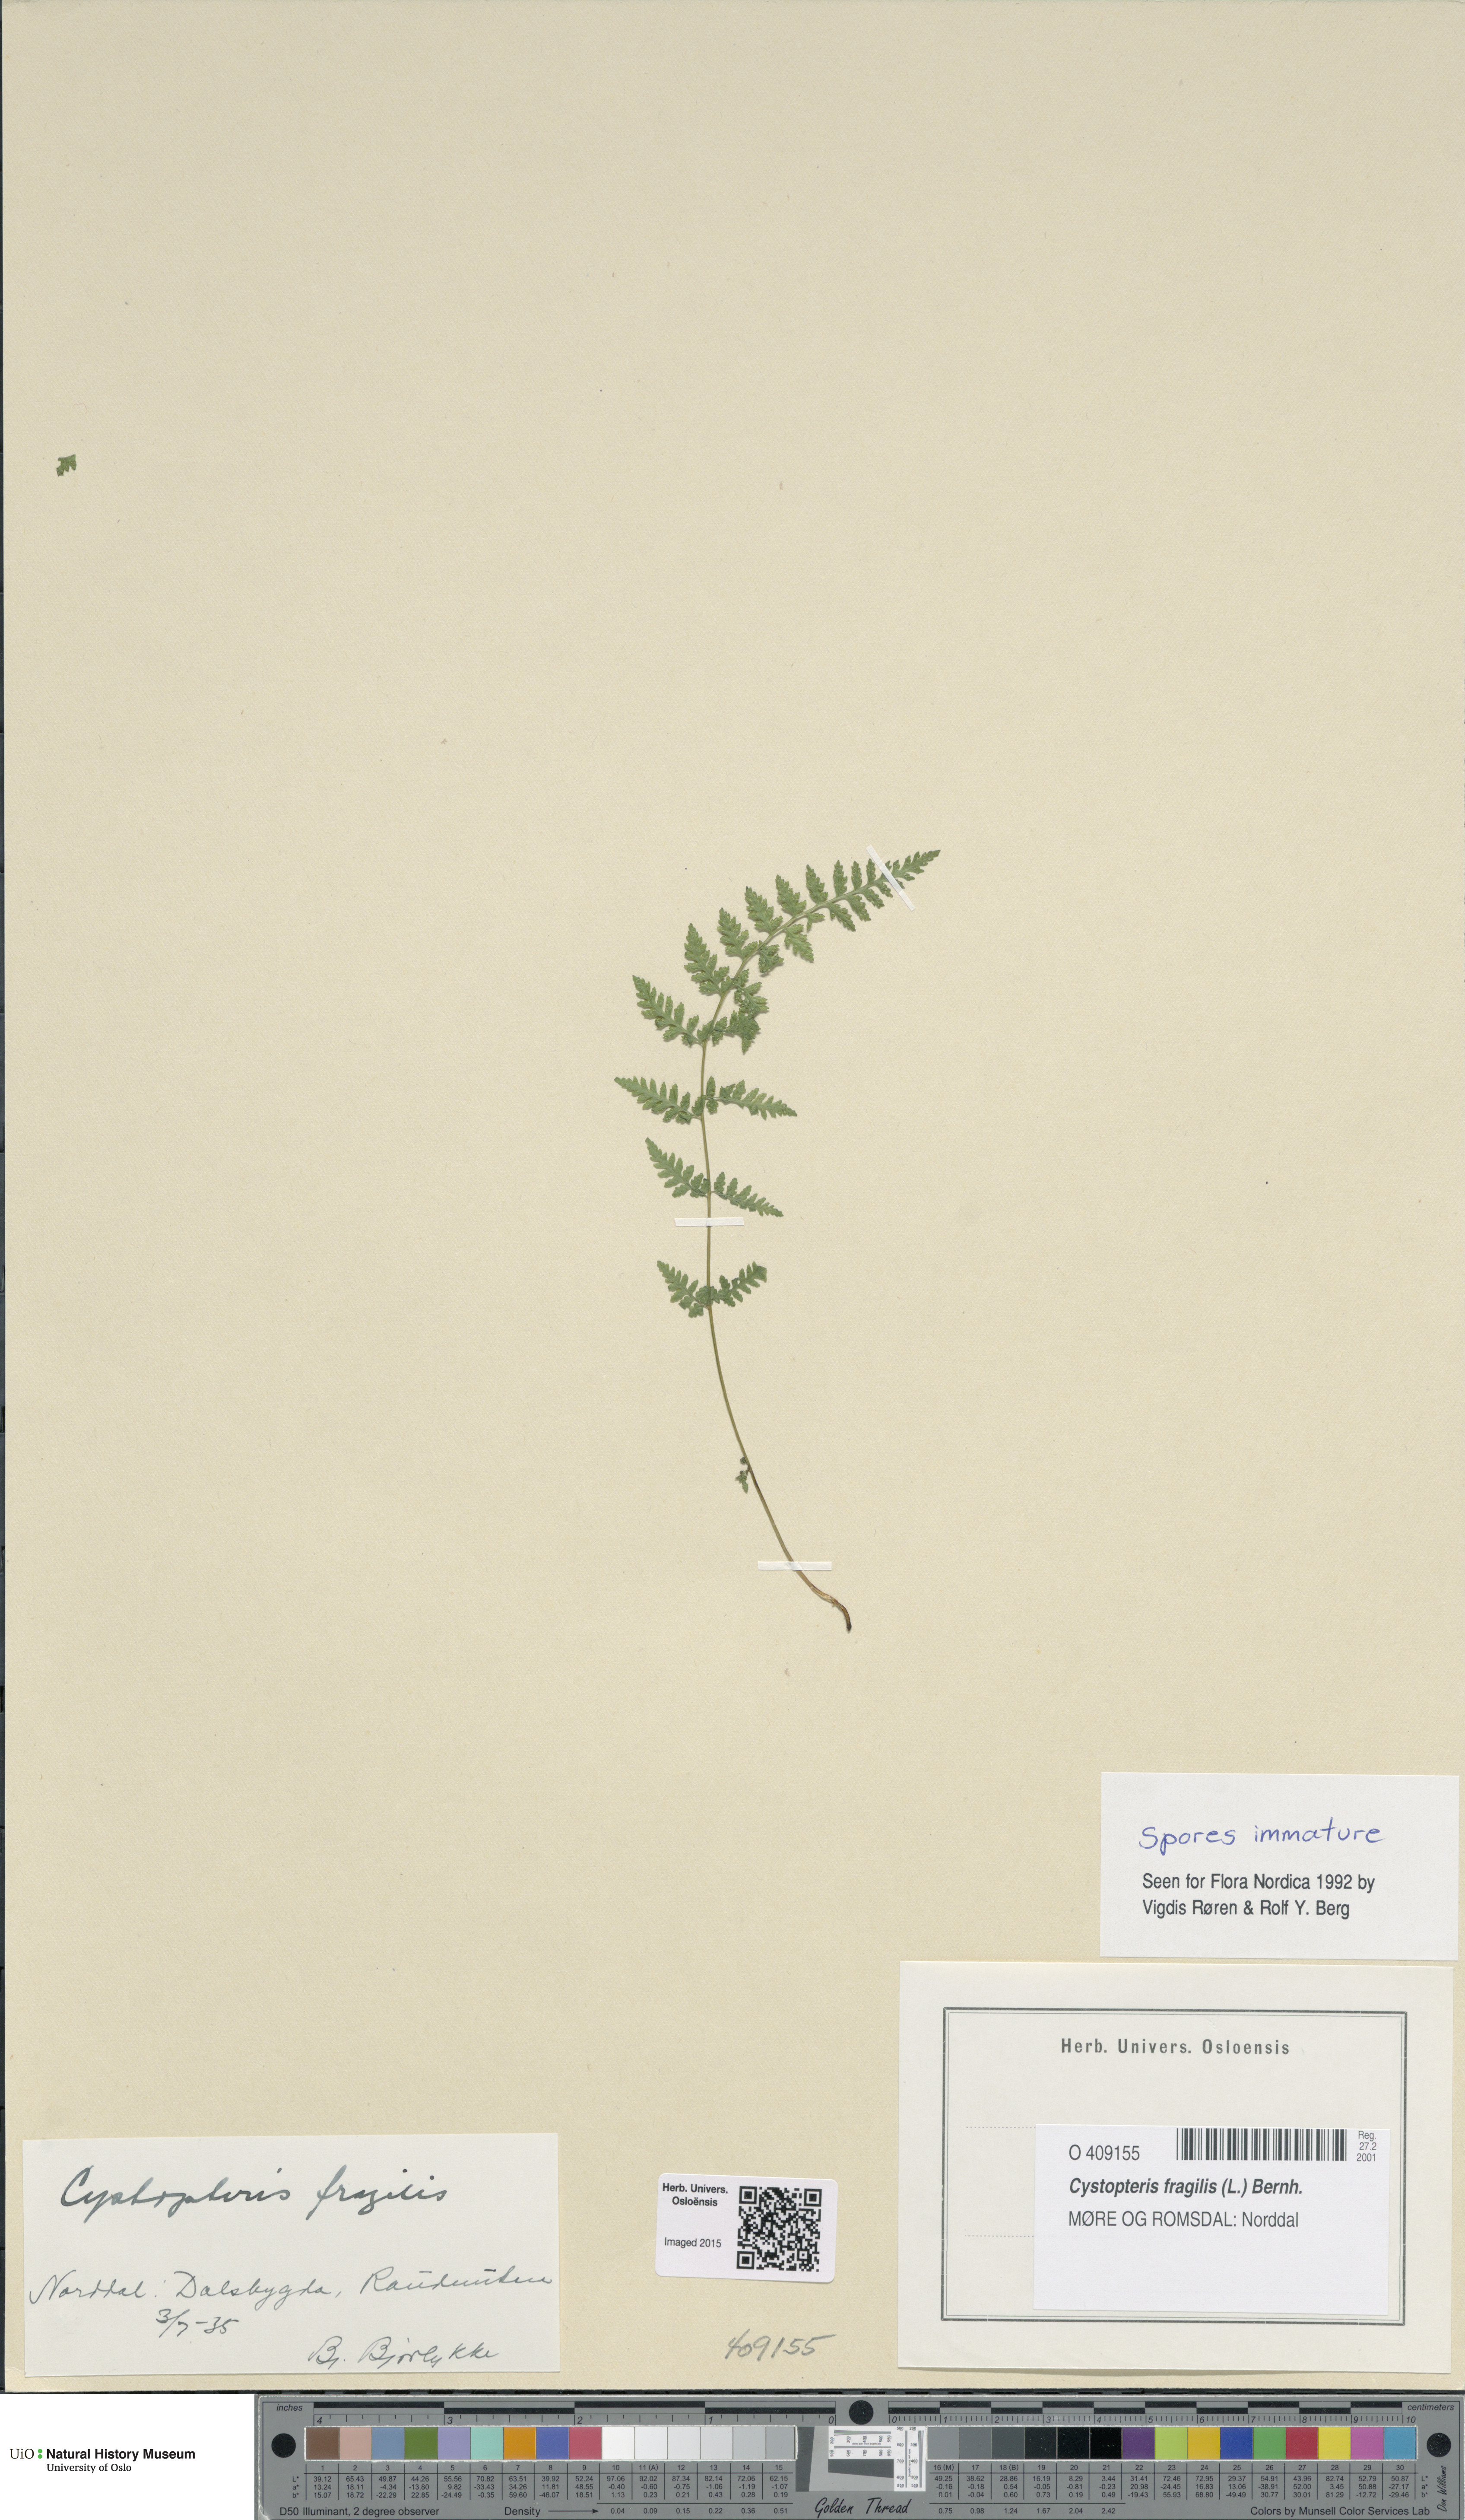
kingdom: Plantae
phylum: Tracheophyta
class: Polypodiopsida
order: Polypodiales
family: Cystopteridaceae
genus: Cystopteris
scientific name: Cystopteris fragilis
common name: Brittle bladder fern
